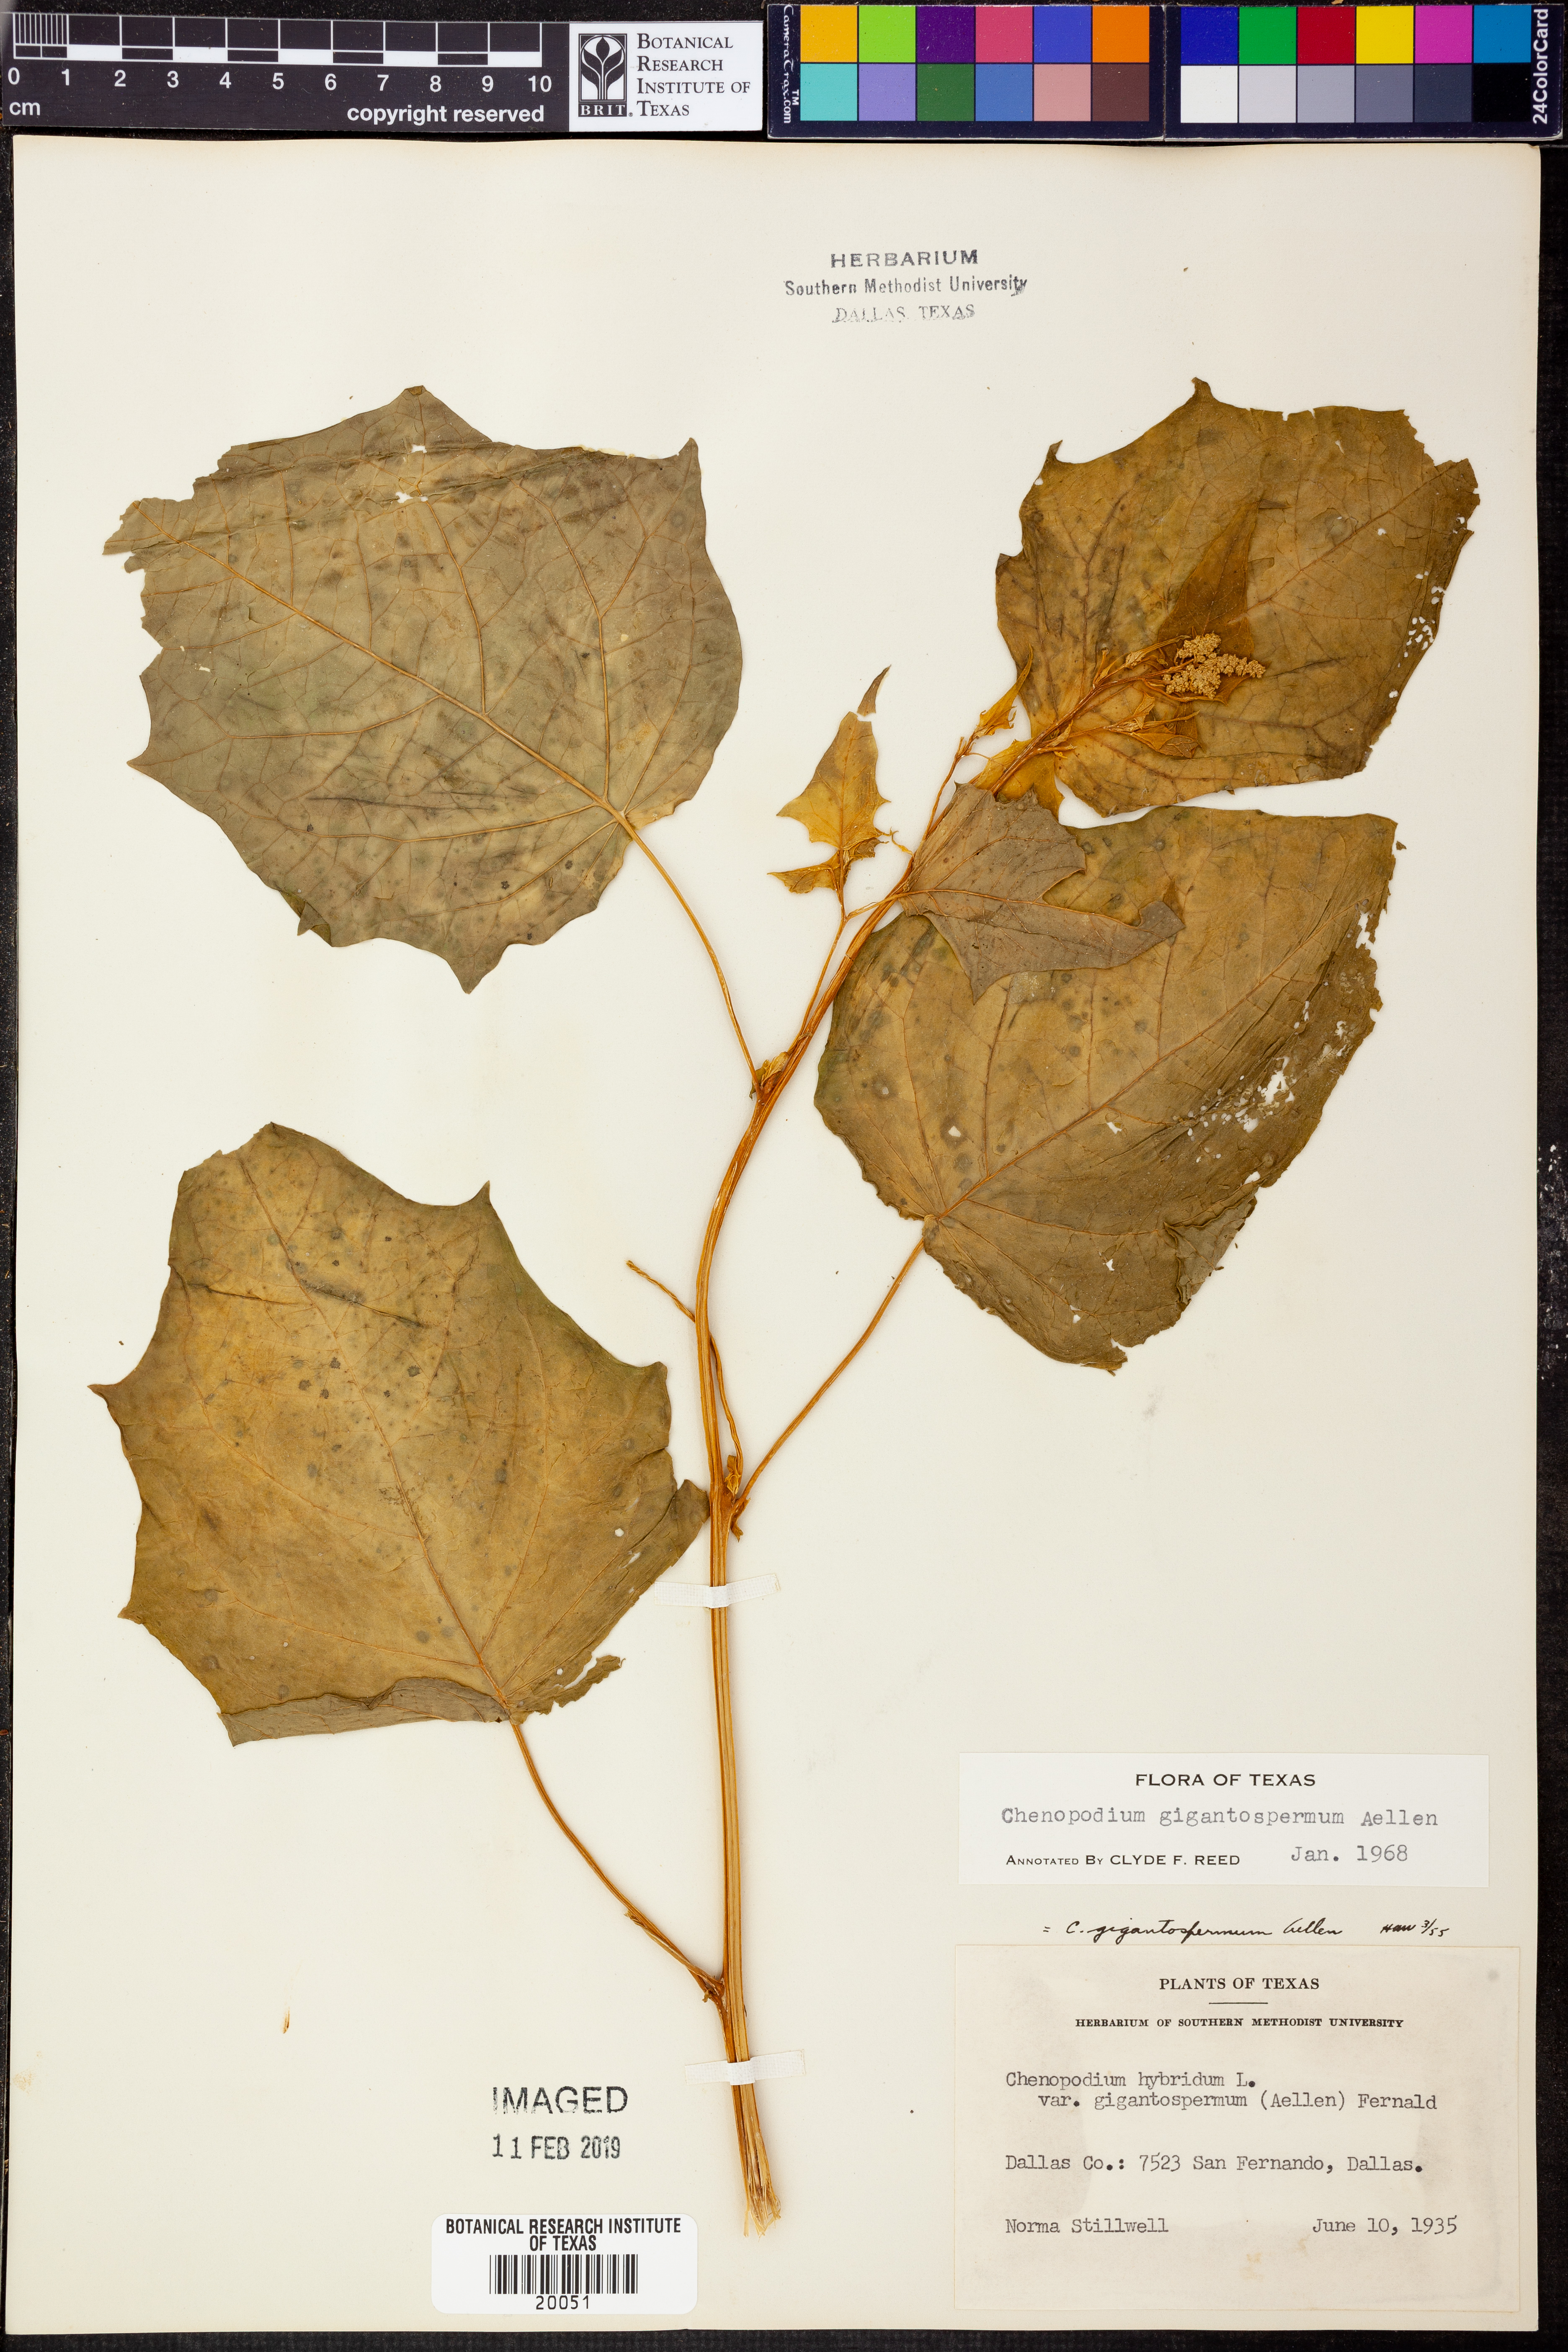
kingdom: Plantae
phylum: Tracheophyta
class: Magnoliopsida
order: Caryophyllales
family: Amaranthaceae
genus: Chenopodiastrum
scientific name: Chenopodiastrum simplex
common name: Large-seed goosefoot
